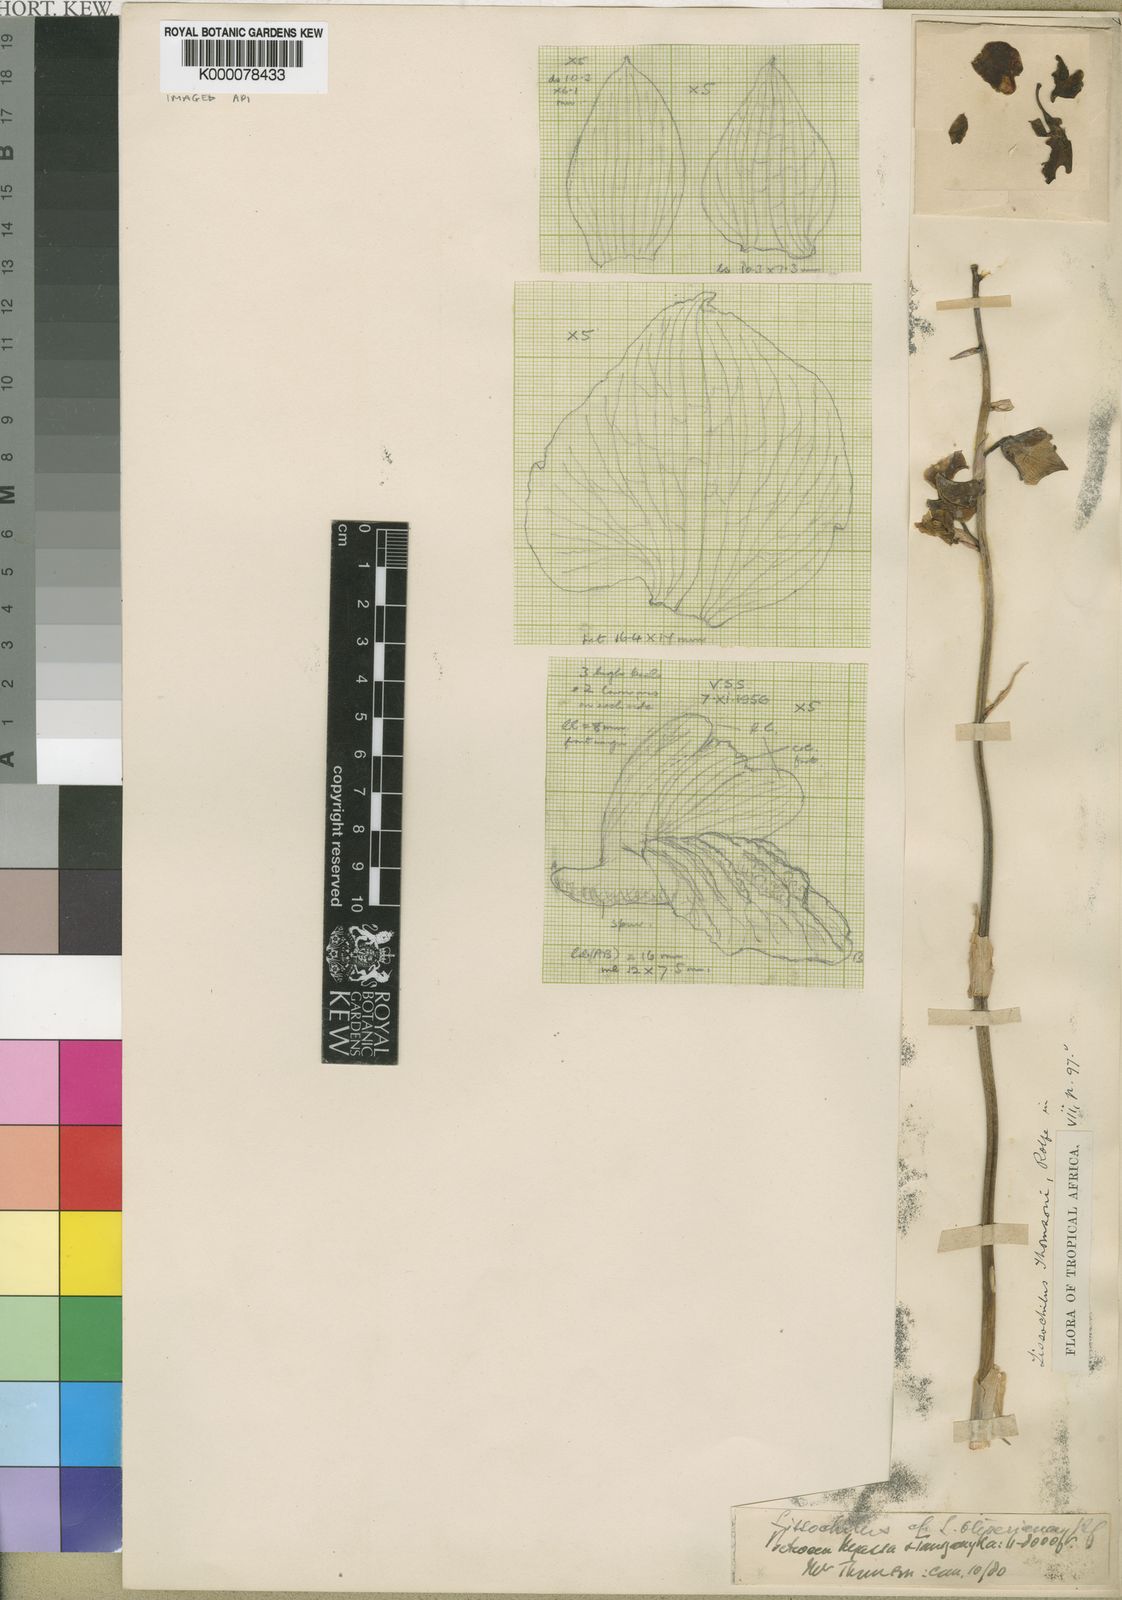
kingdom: Plantae
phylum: Tracheophyta
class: Liliopsida
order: Asparagales
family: Orchidaceae
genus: Eulophia
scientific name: Eulophia schweinfurthii
